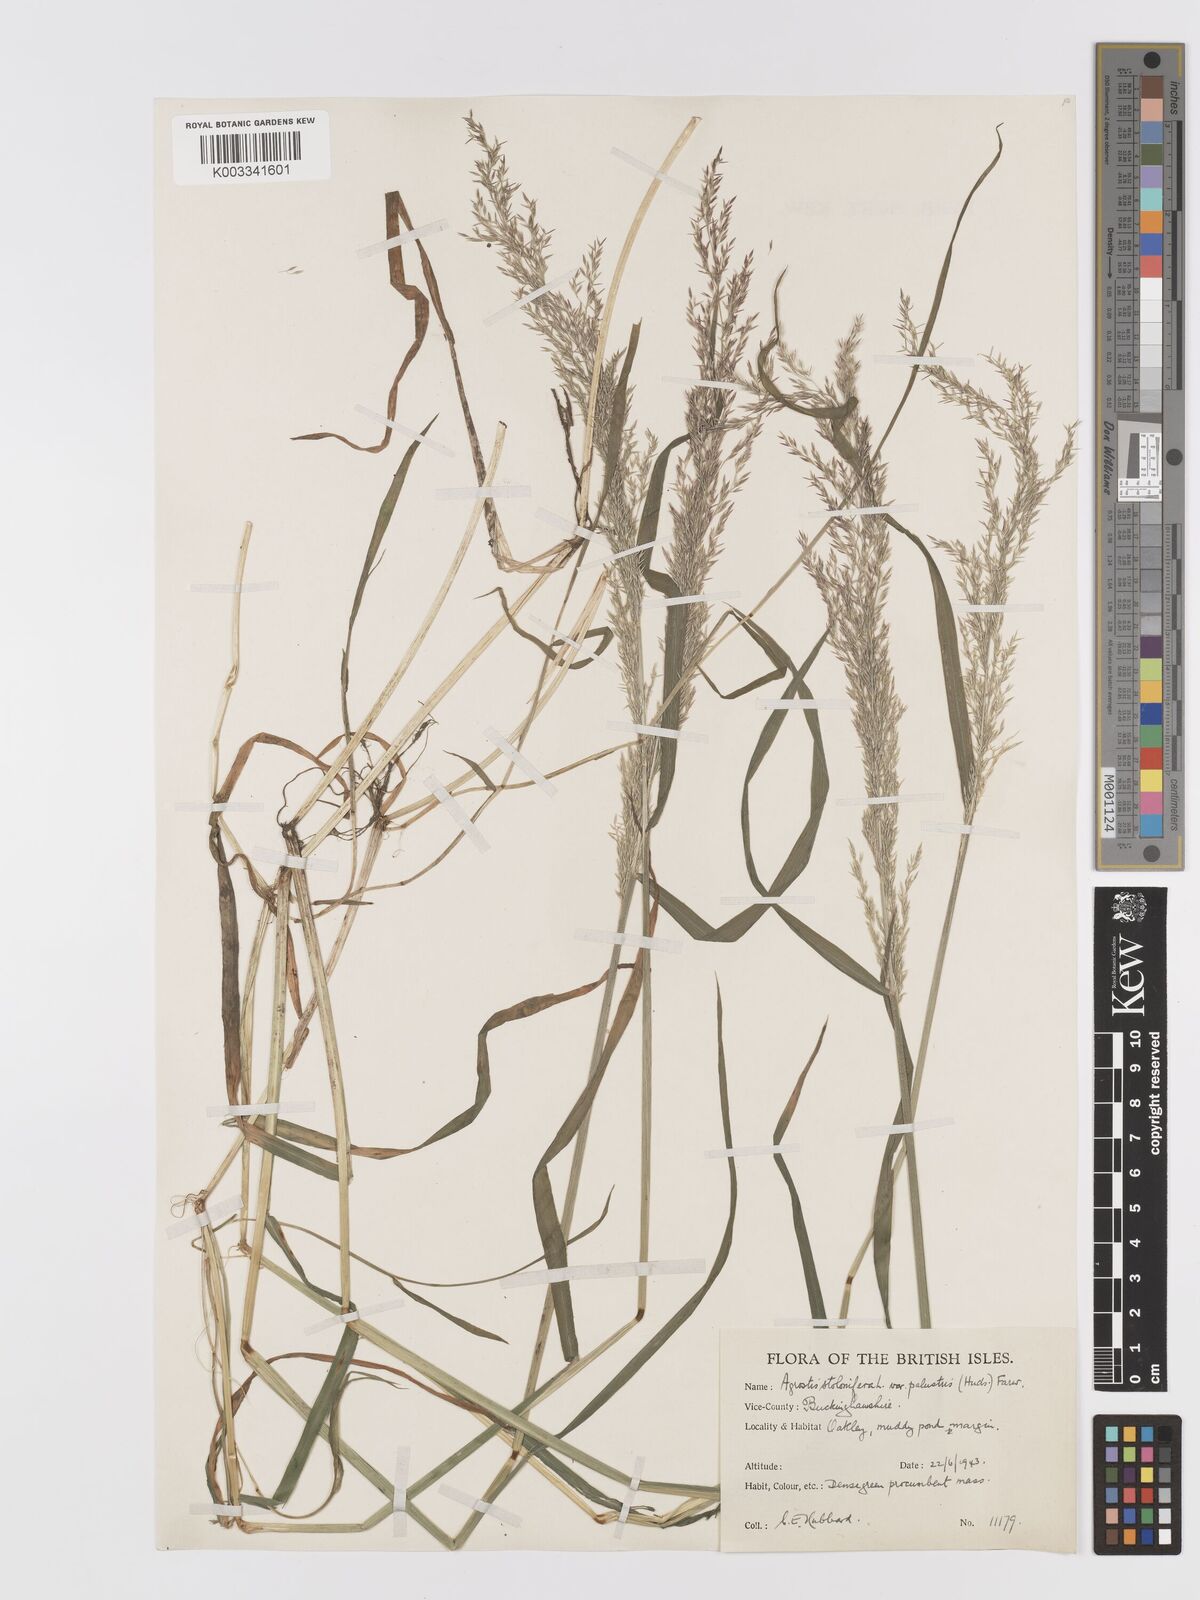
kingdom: Plantae
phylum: Tracheophyta
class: Liliopsida
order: Poales
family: Poaceae
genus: Agrostis
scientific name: Agrostis stolonifera
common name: Creeping bentgrass
